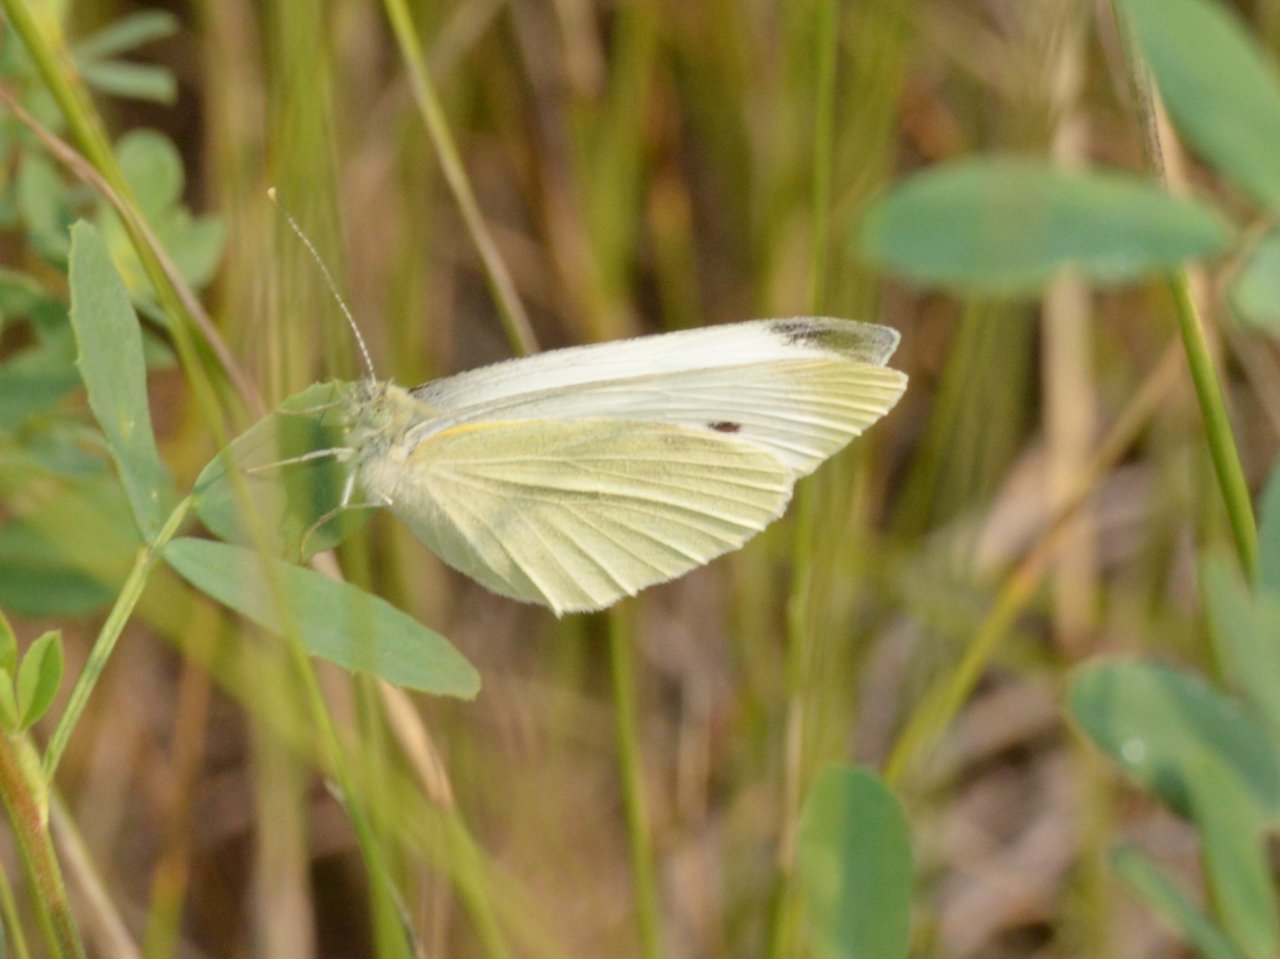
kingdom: Animalia
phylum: Arthropoda
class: Insecta
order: Lepidoptera
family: Pieridae
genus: Pieris
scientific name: Pieris rapae
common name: Cabbage White
